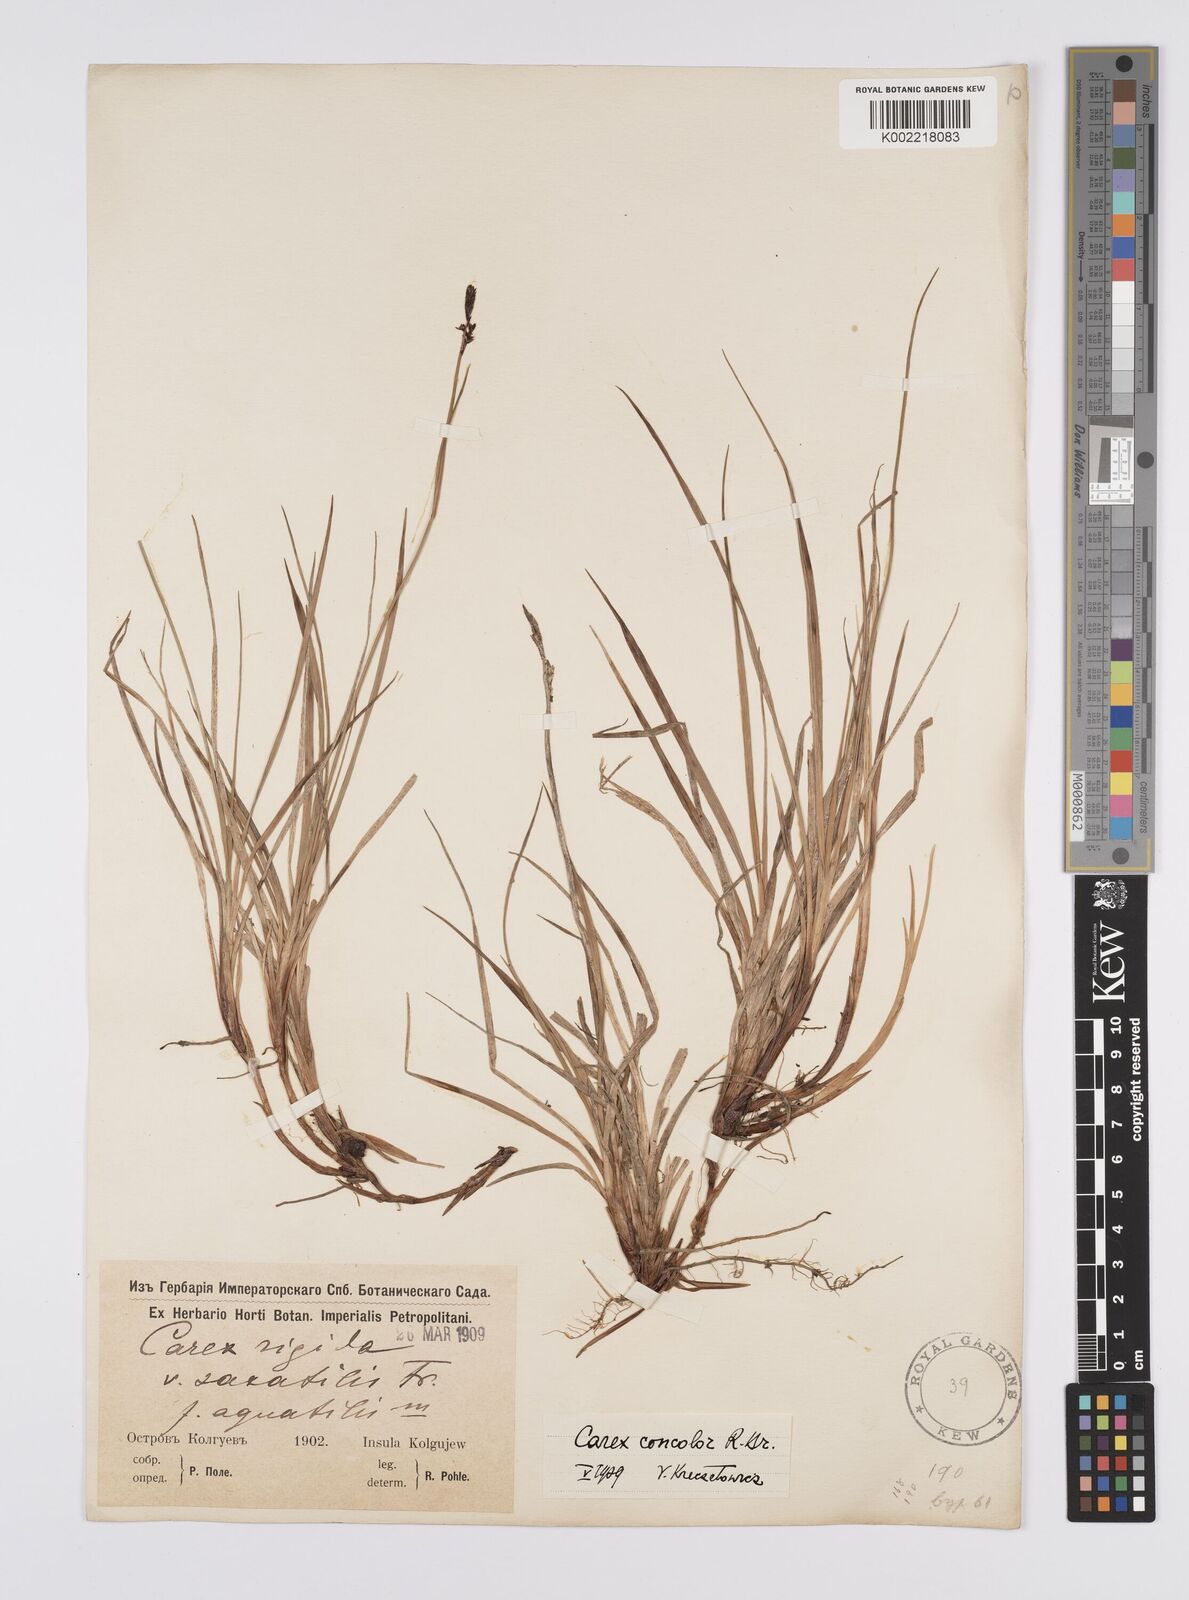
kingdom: Plantae
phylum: Tracheophyta
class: Liliopsida
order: Poales
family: Cyperaceae
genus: Carex
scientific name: Carex dacica
